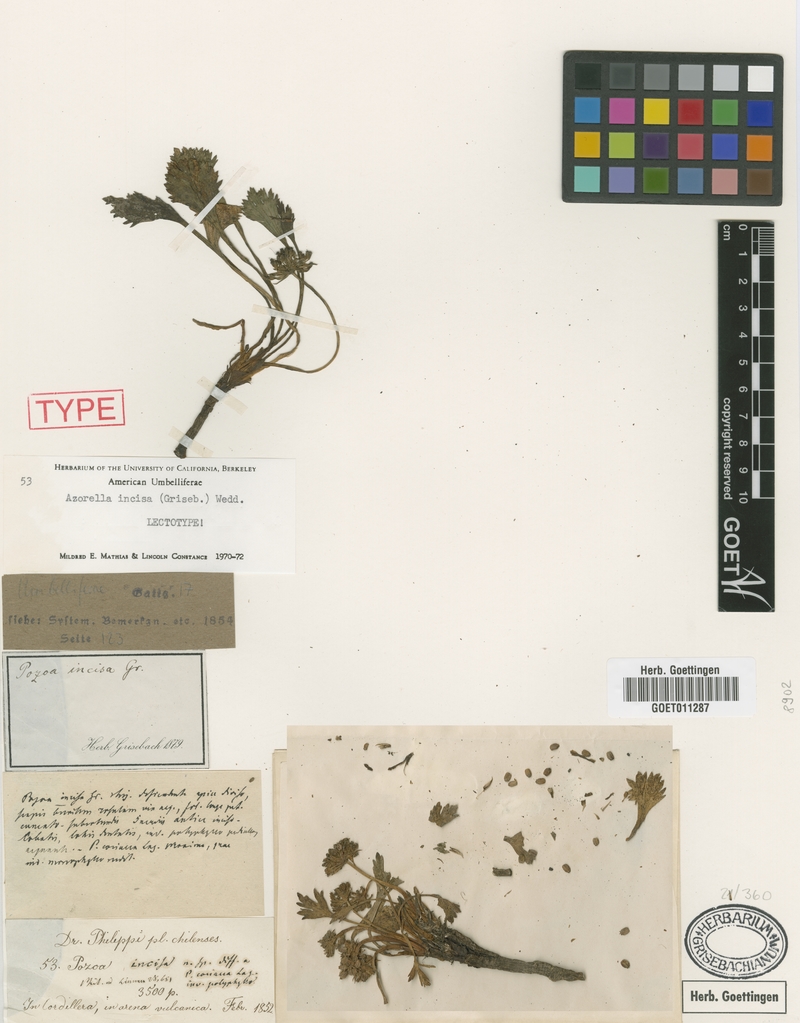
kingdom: Plantae
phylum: Tracheophyta
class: Magnoliopsida
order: Apiales
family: Apiaceae
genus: Azorella
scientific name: Azorella diversifolia
